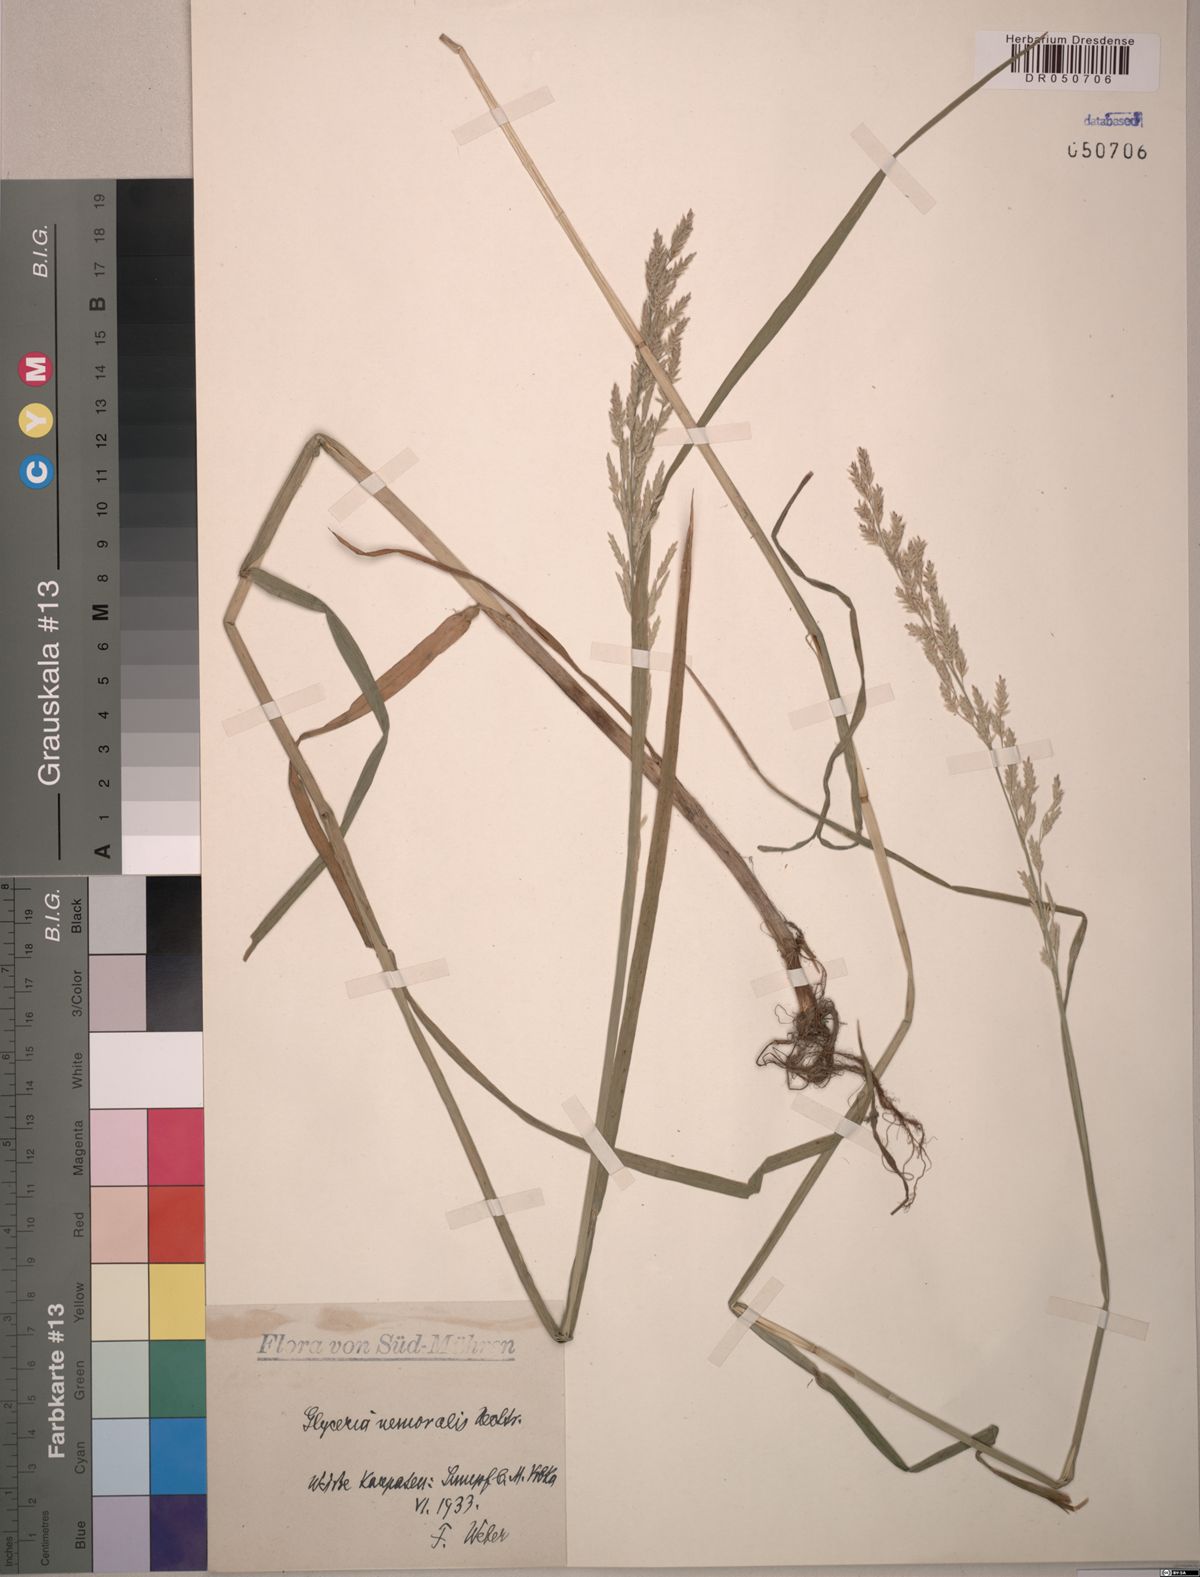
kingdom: Plantae
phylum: Tracheophyta
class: Liliopsida
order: Poales
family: Poaceae
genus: Glyceria
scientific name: Glyceria nemoralis
